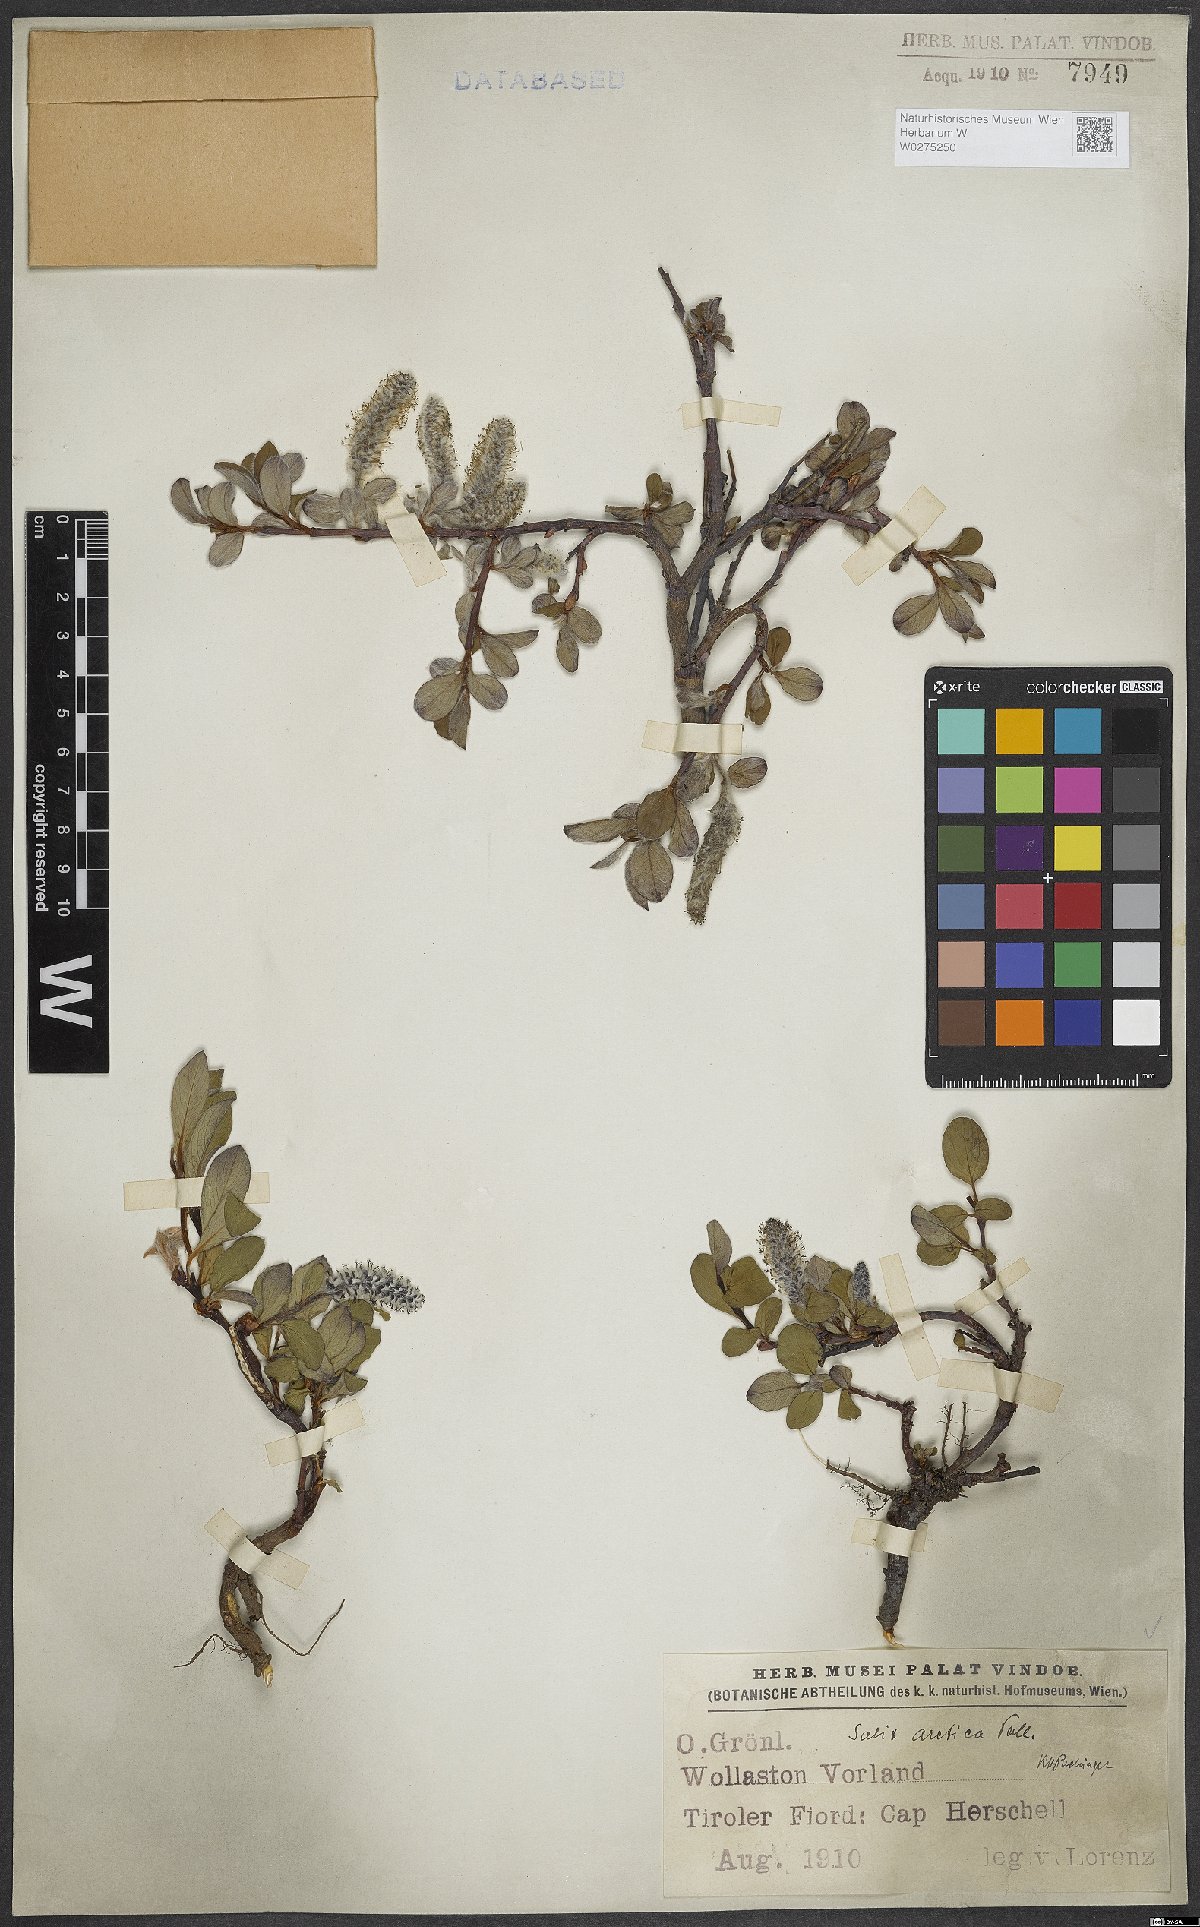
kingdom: Plantae
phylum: Tracheophyta
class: Magnoliopsida
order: Malpighiales
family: Salicaceae
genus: Salix
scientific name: Salix arctica
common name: Arctic willow
